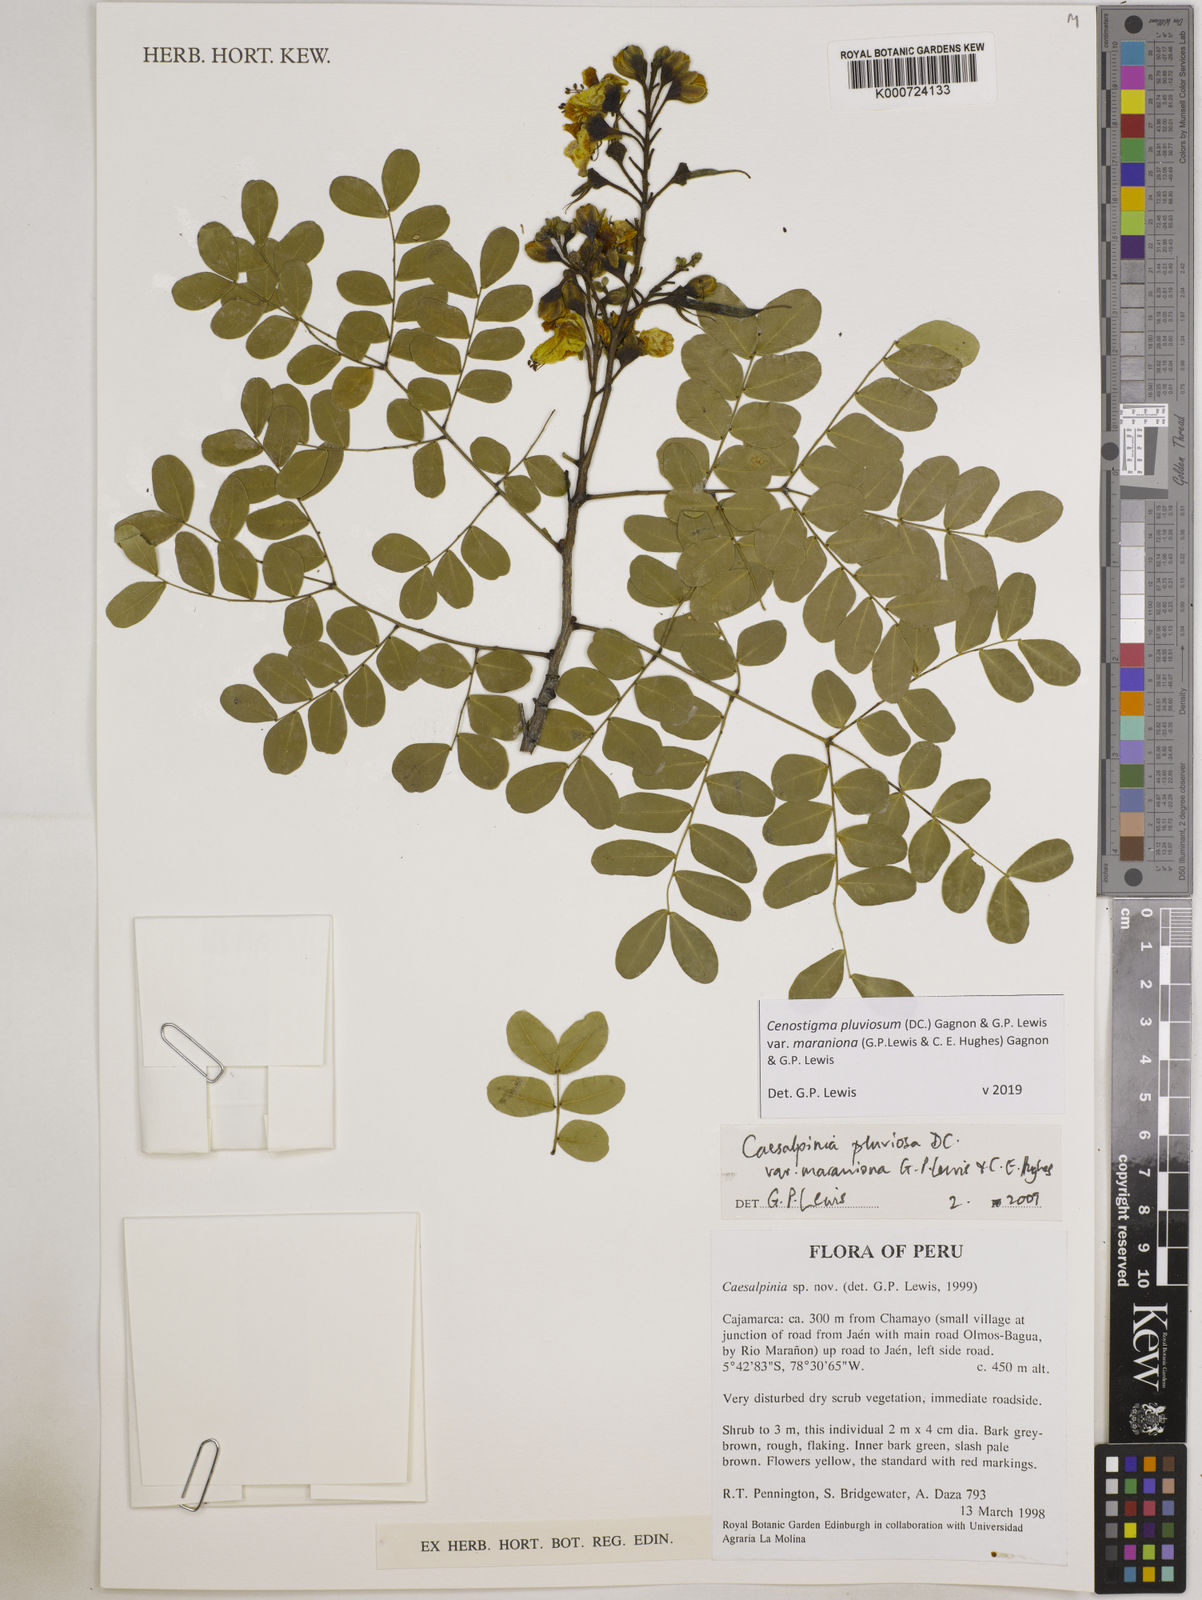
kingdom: Plantae
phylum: Tracheophyta
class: Magnoliopsida
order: Fabales
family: Fabaceae
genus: Cenostigma
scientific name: Cenostigma pluviosum
